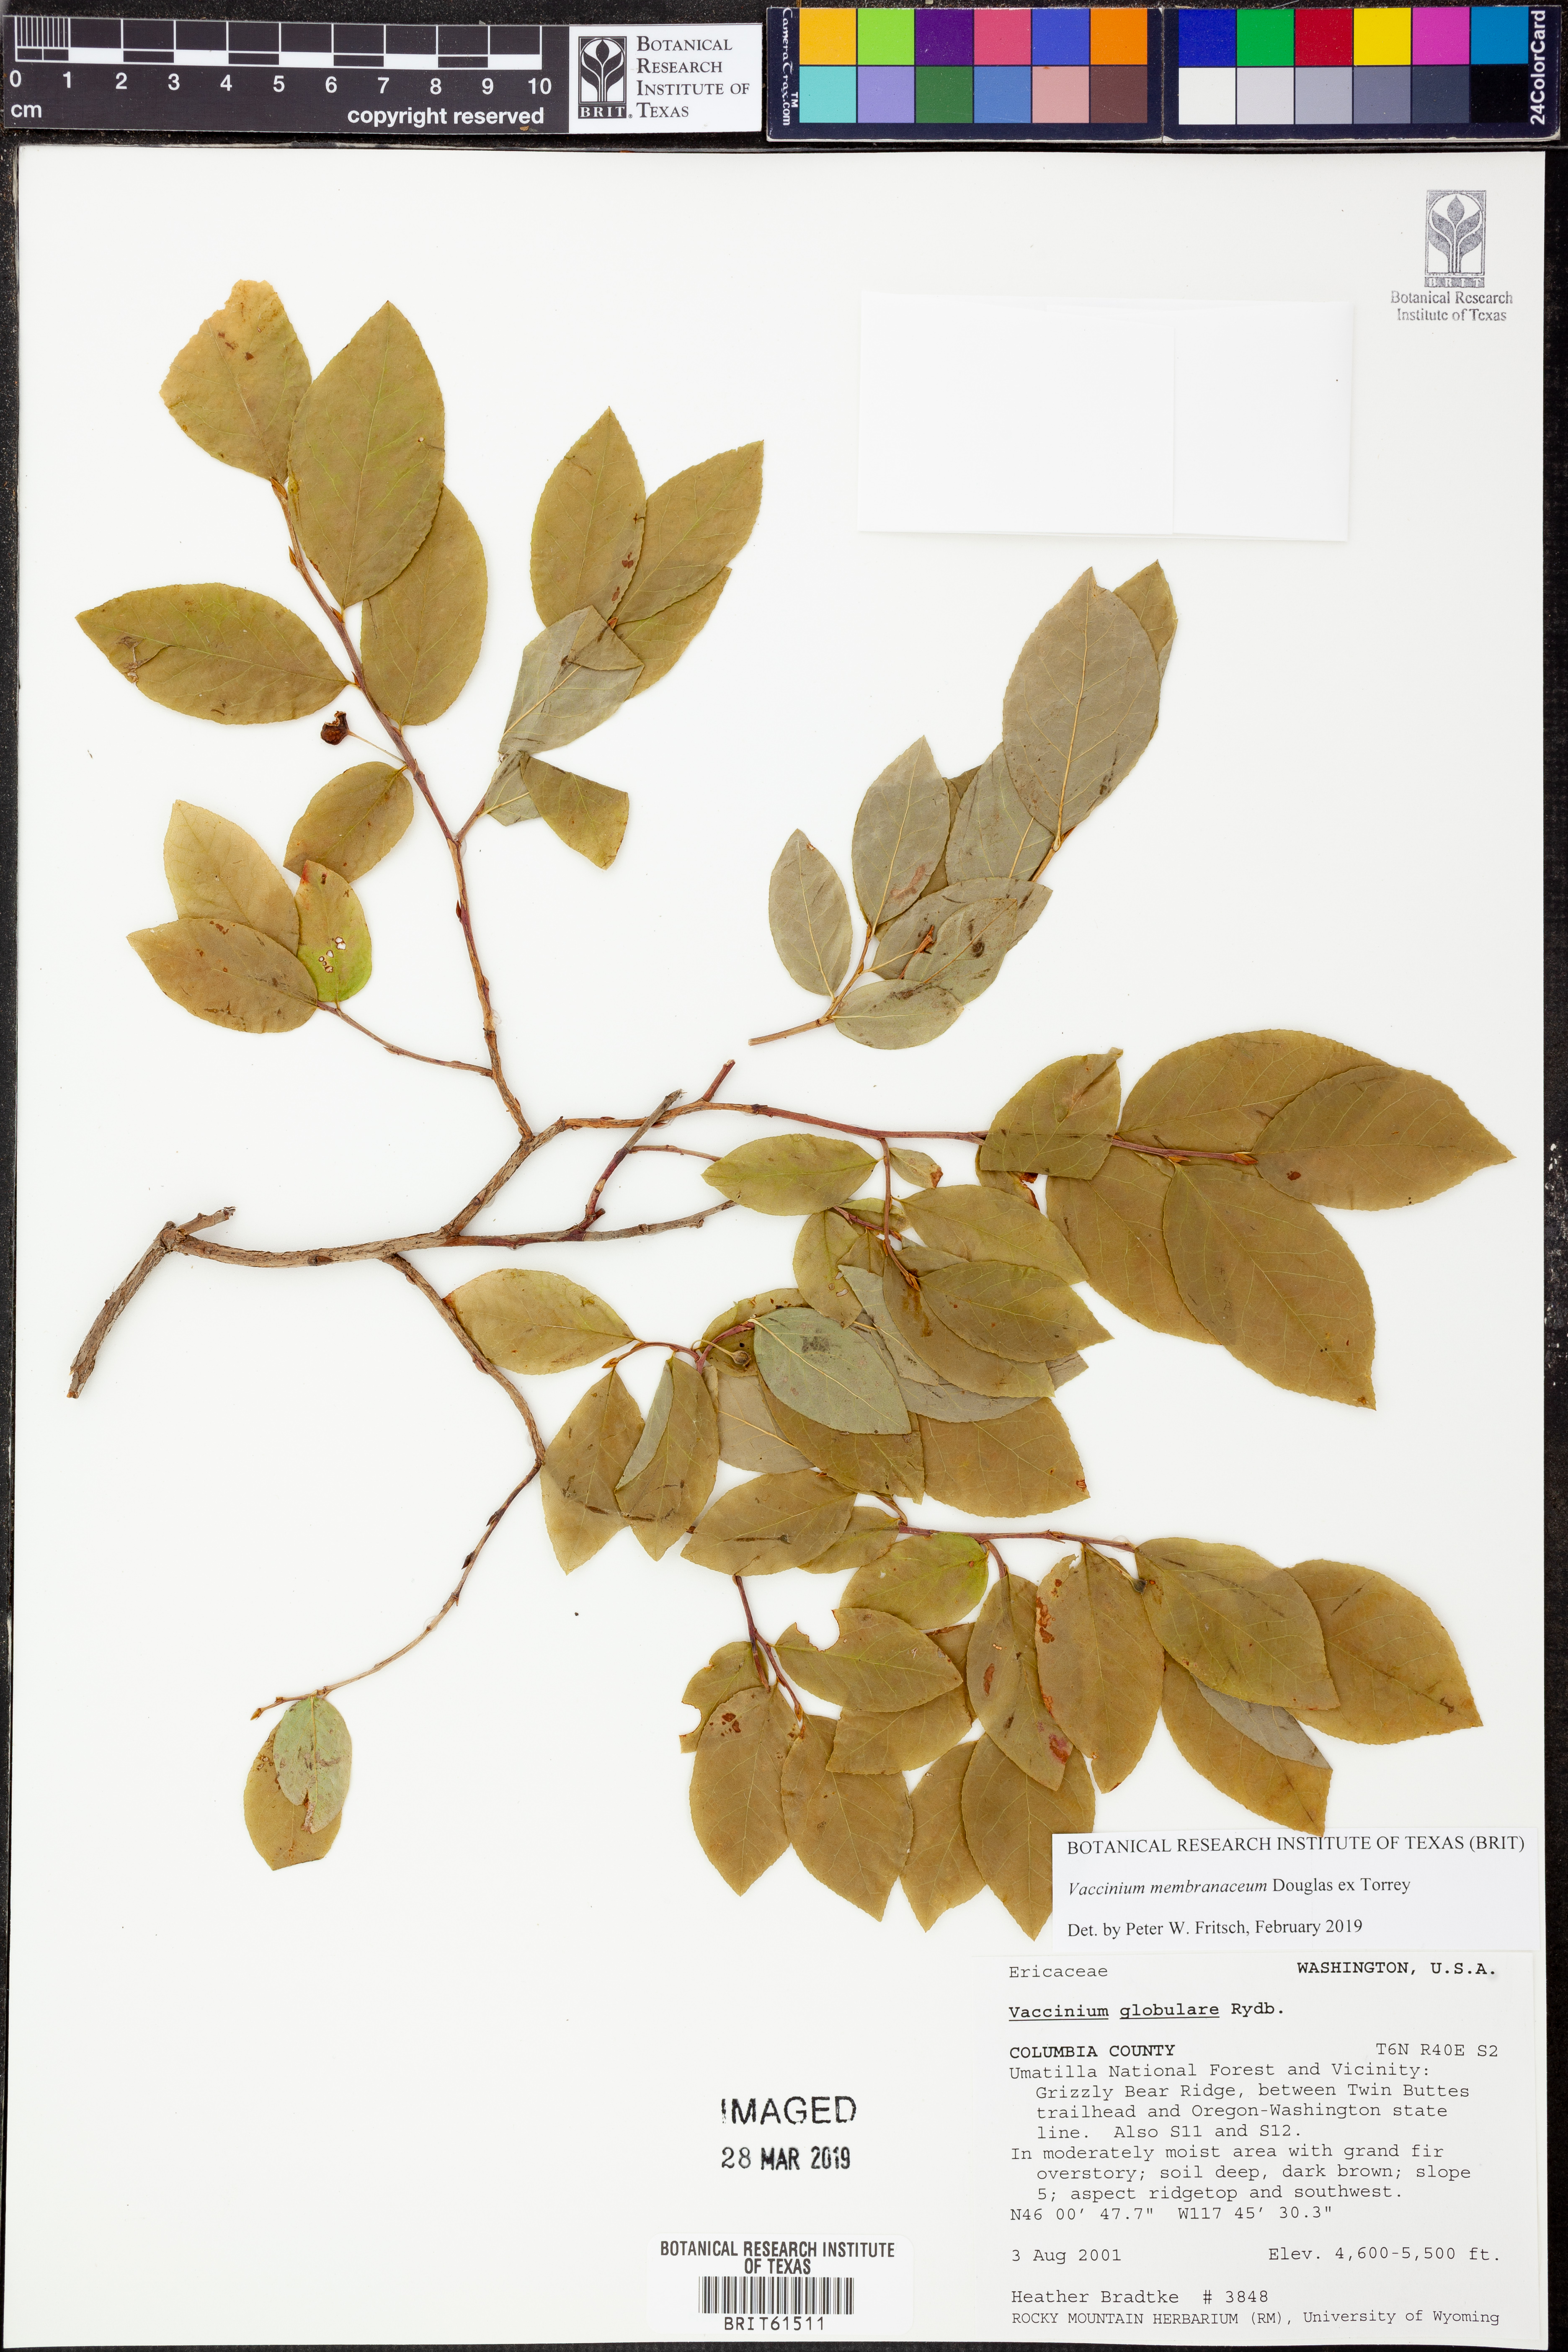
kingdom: Plantae
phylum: Tracheophyta
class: Magnoliopsida
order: Ericales
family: Ericaceae
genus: Vaccinium
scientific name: Vaccinium membranaceum
